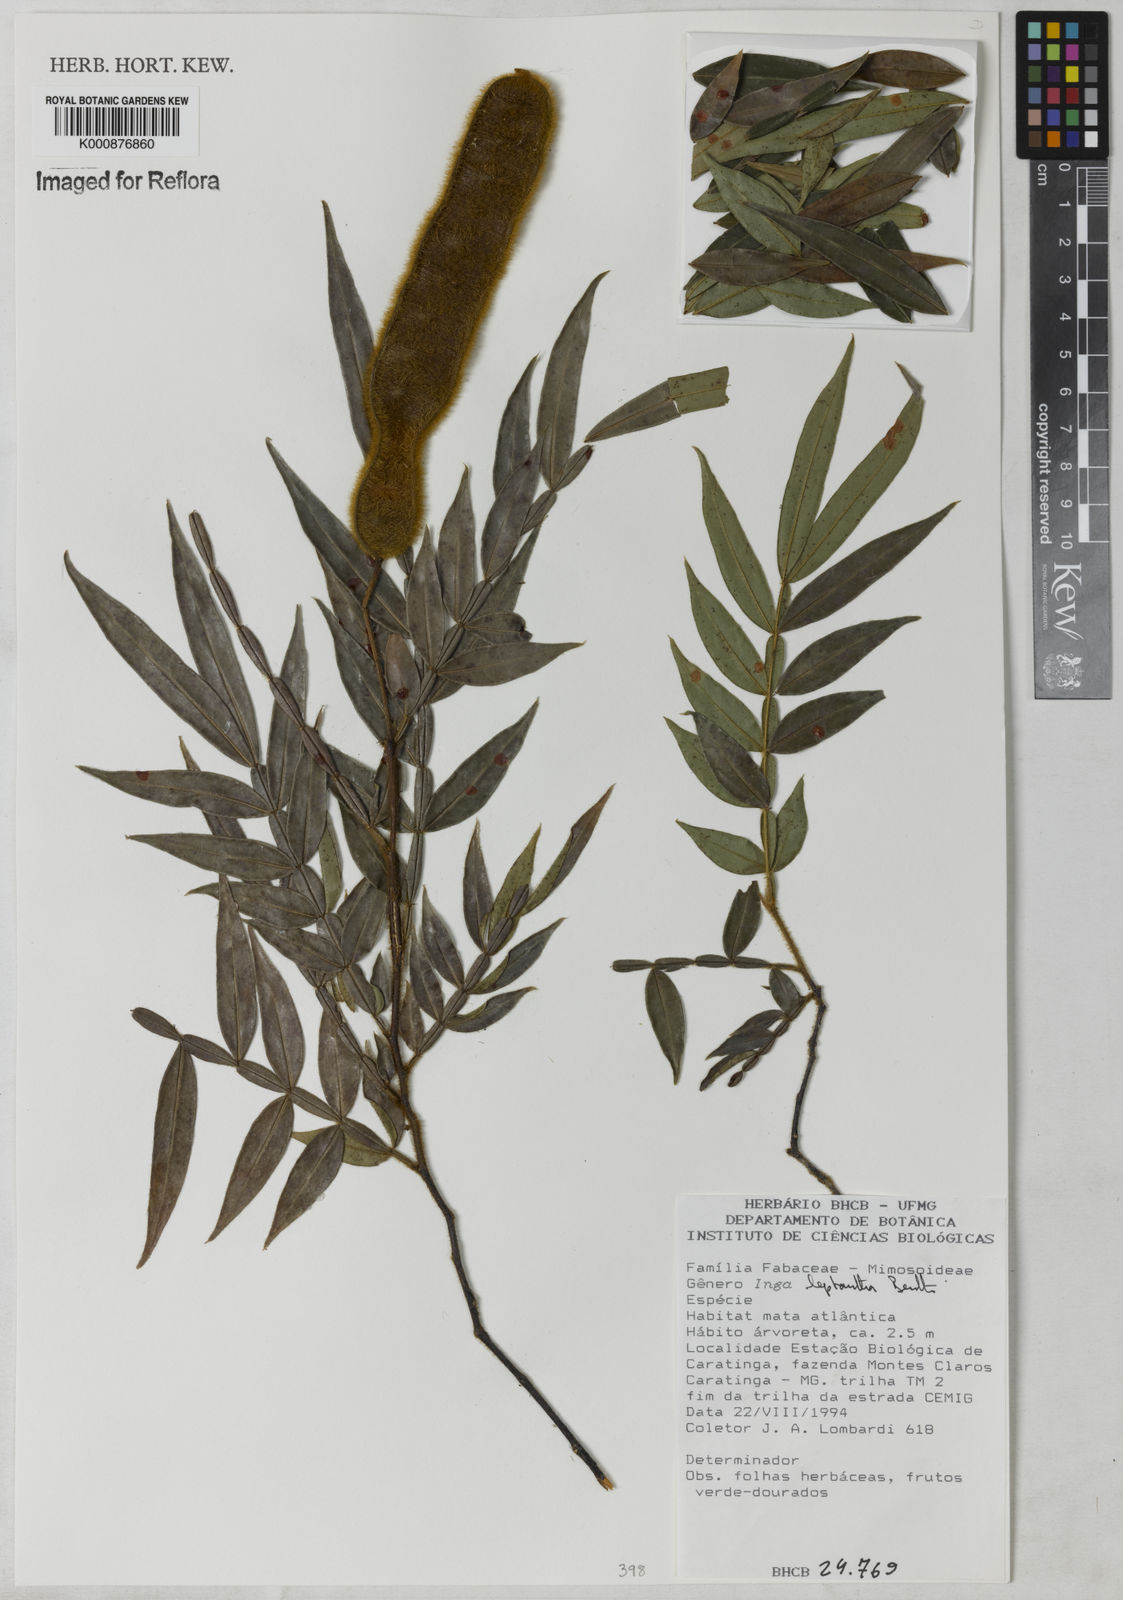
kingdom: Plantae
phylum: Tracheophyta
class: Magnoliopsida
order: Fabales
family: Fabaceae
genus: Inga
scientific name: Inga leptantha
